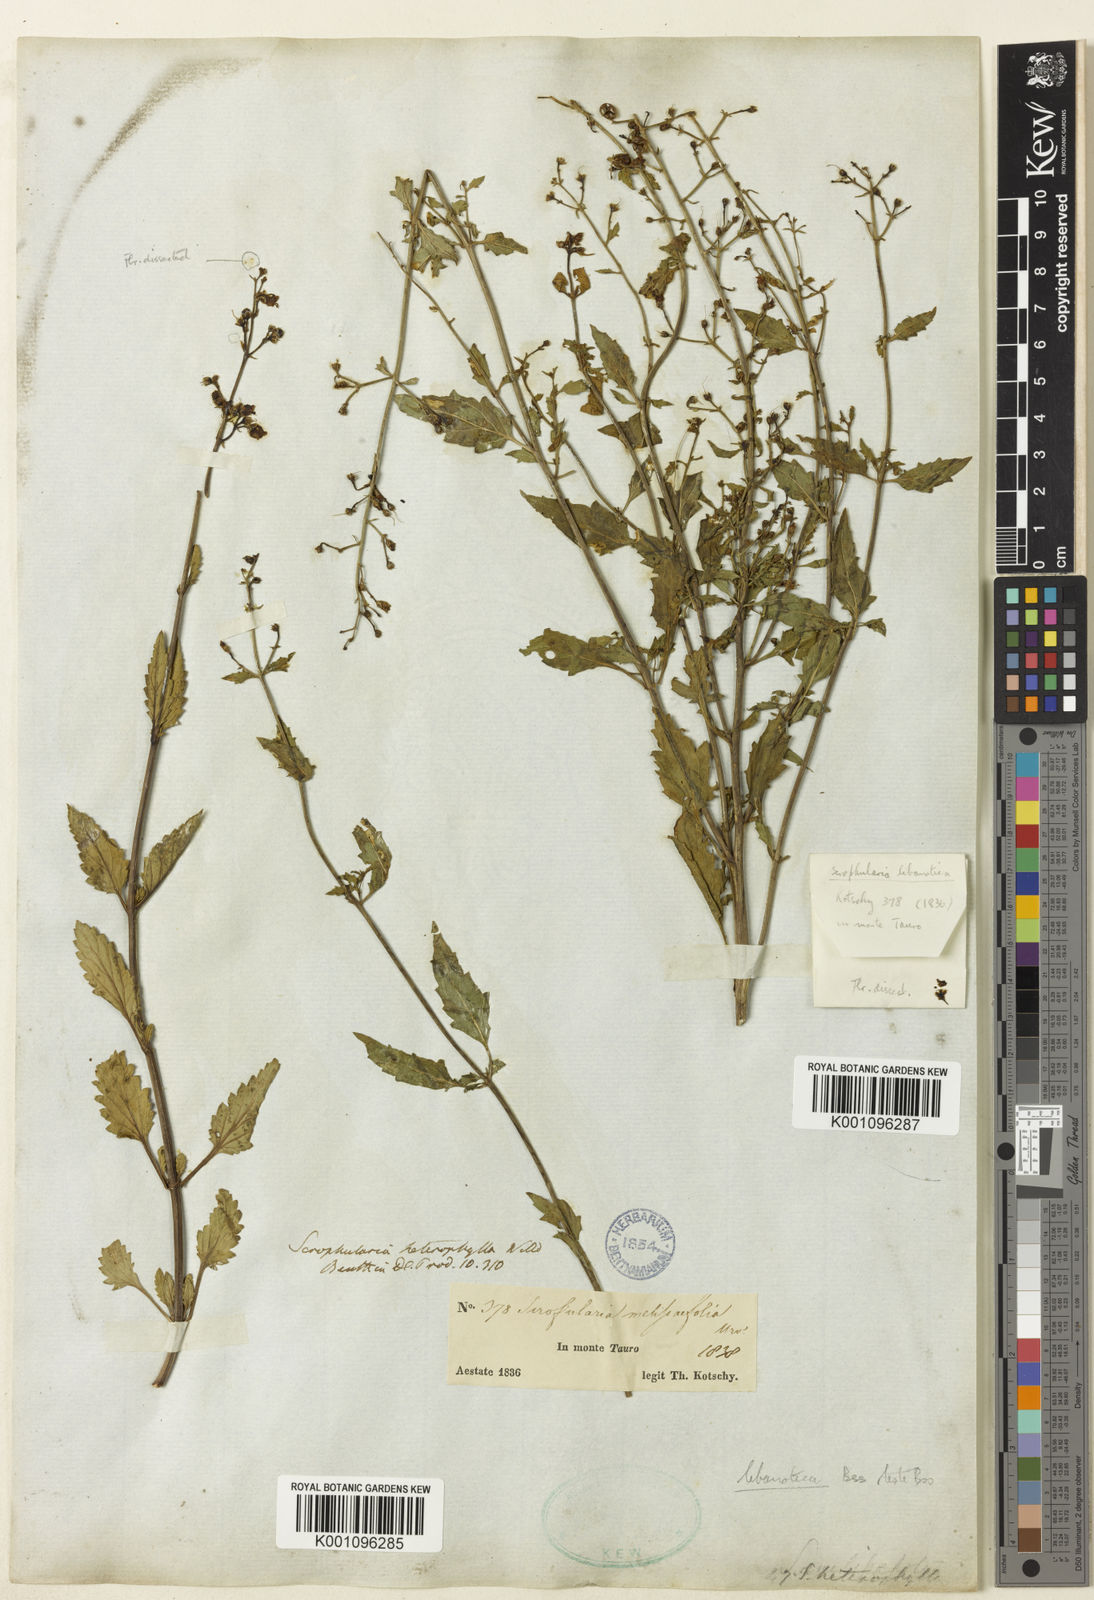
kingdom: Plantae
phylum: Tracheophyta
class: Magnoliopsida
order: Lamiales
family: Scrophulariaceae
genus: Scrophularia
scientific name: Scrophularia heterophylla
